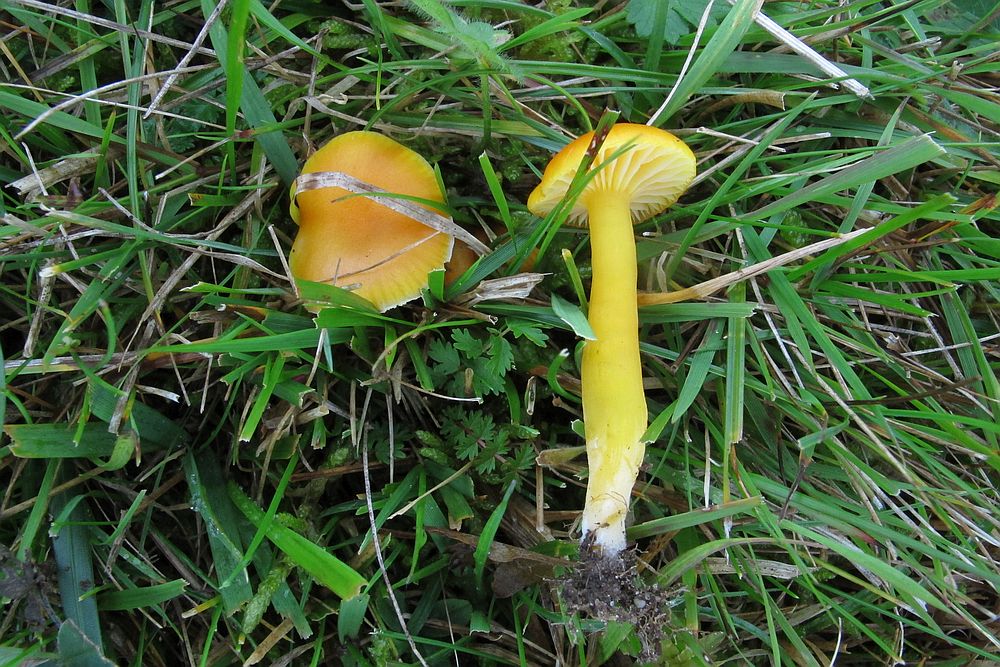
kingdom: Fungi
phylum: Basidiomycota
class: Agaricomycetes
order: Agaricales
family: Hygrophoraceae
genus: Hygrocybe
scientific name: Hygrocybe chlorophana
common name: gul vokshat
